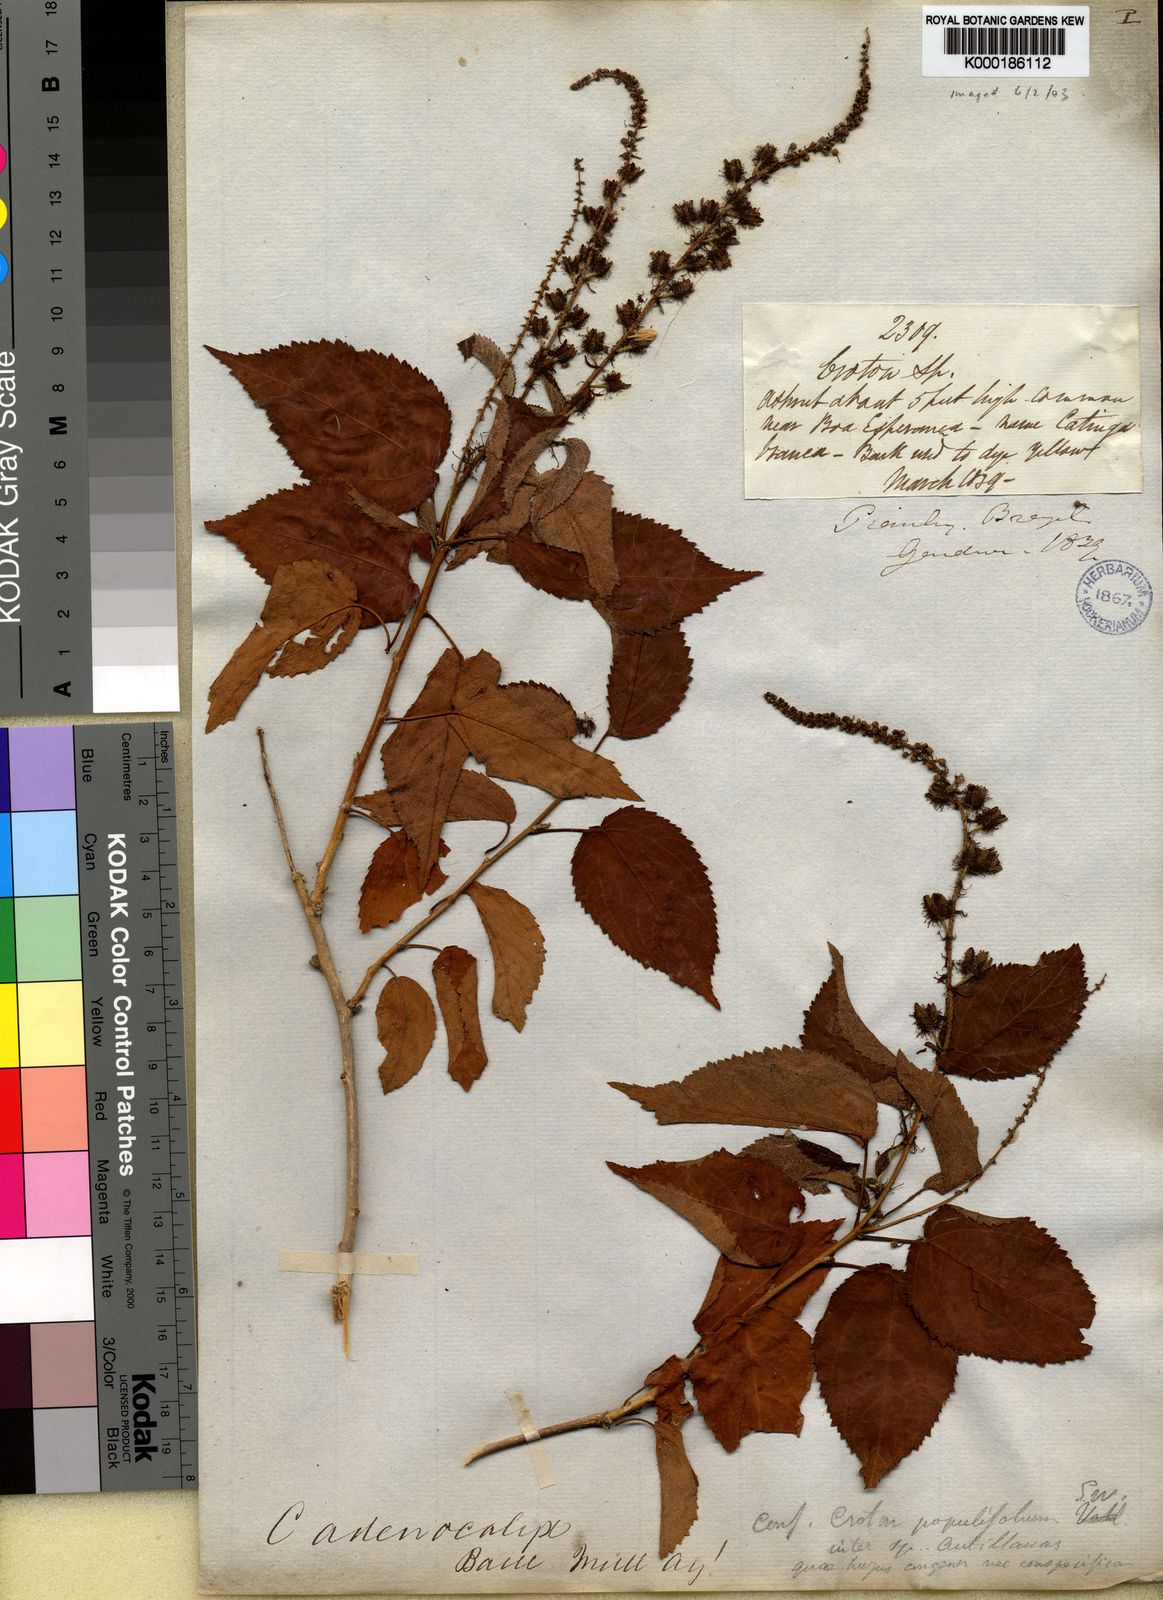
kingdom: Plantae
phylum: Tracheophyta
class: Magnoliopsida
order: Malpighiales
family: Euphorbiaceae
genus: Croton
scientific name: Croton adenocalyx
